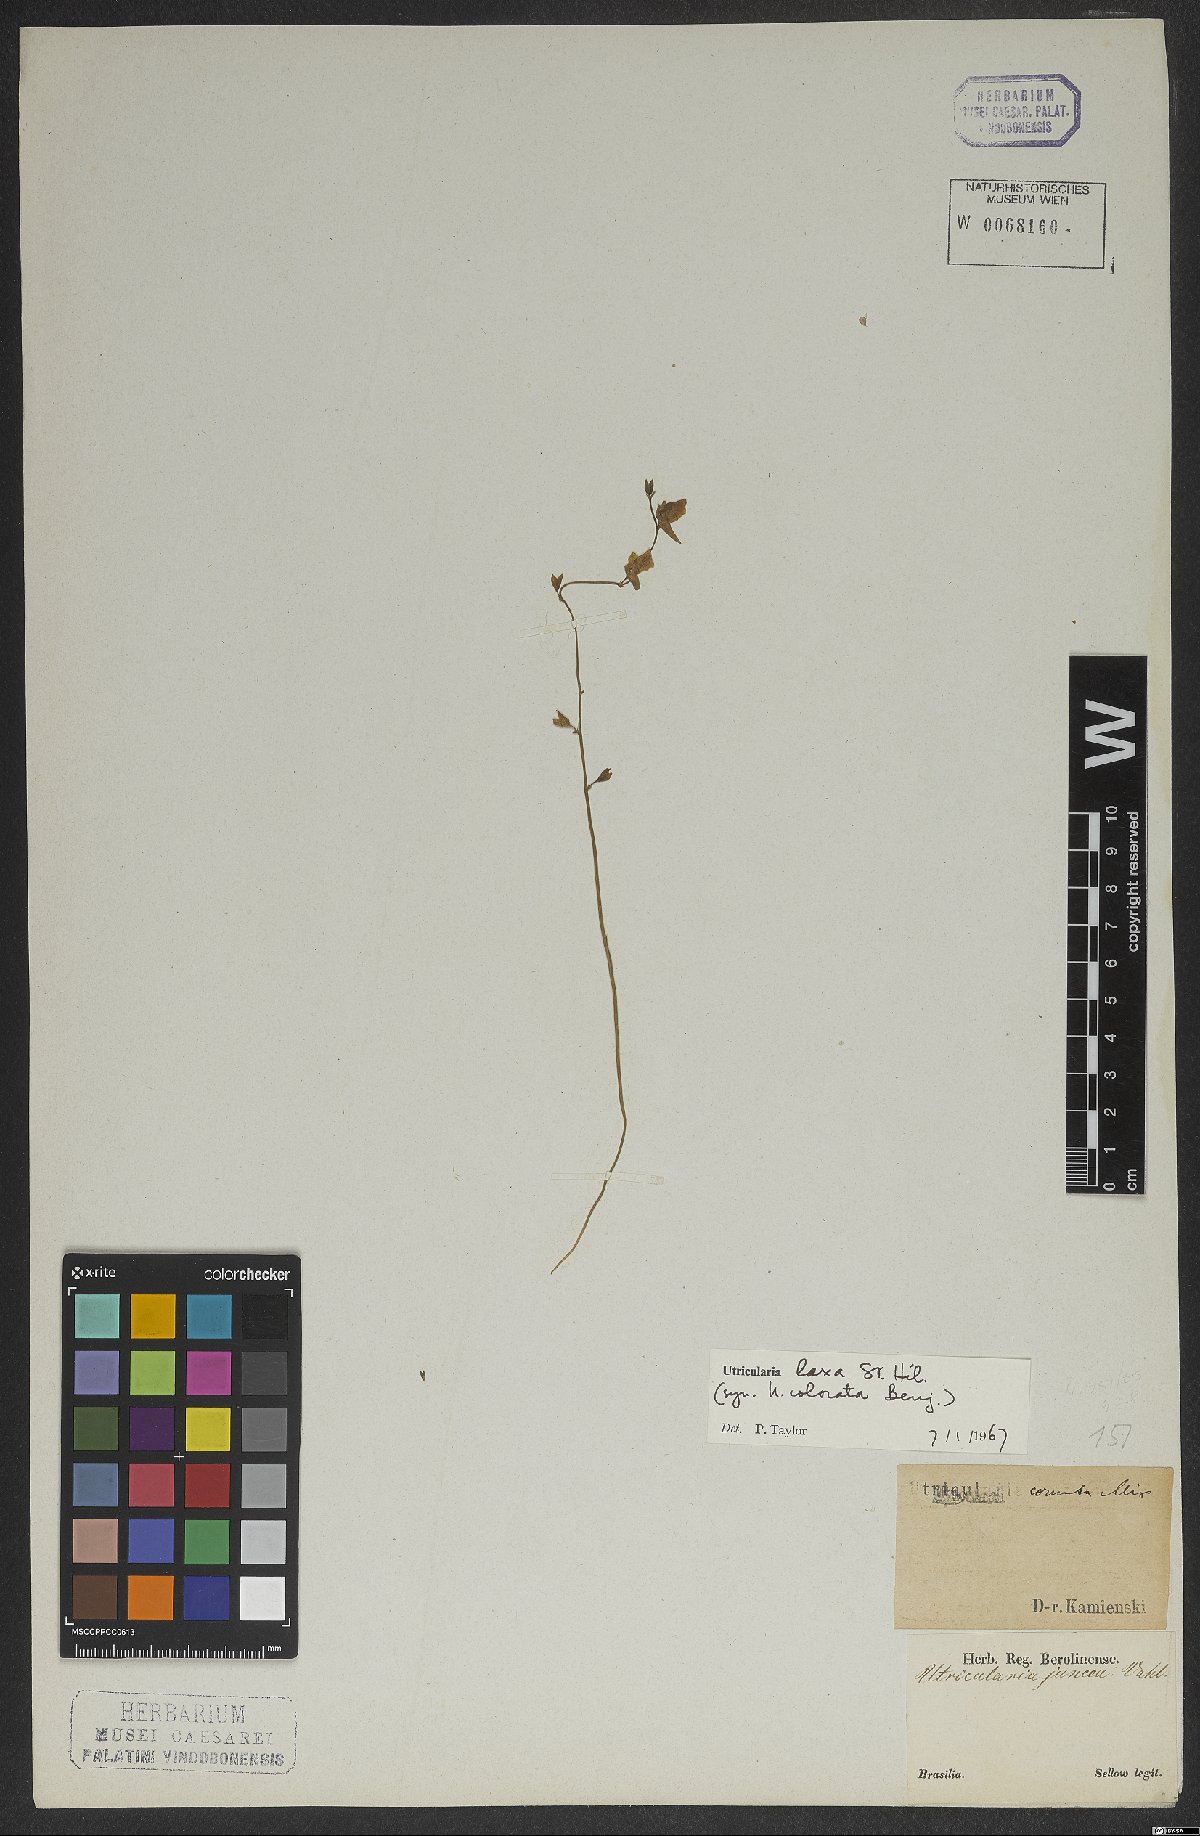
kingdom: Plantae
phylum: Tracheophyta
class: Magnoliopsida
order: Lamiales
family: Lentibulariaceae
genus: Utricularia
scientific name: Utricularia laxa
